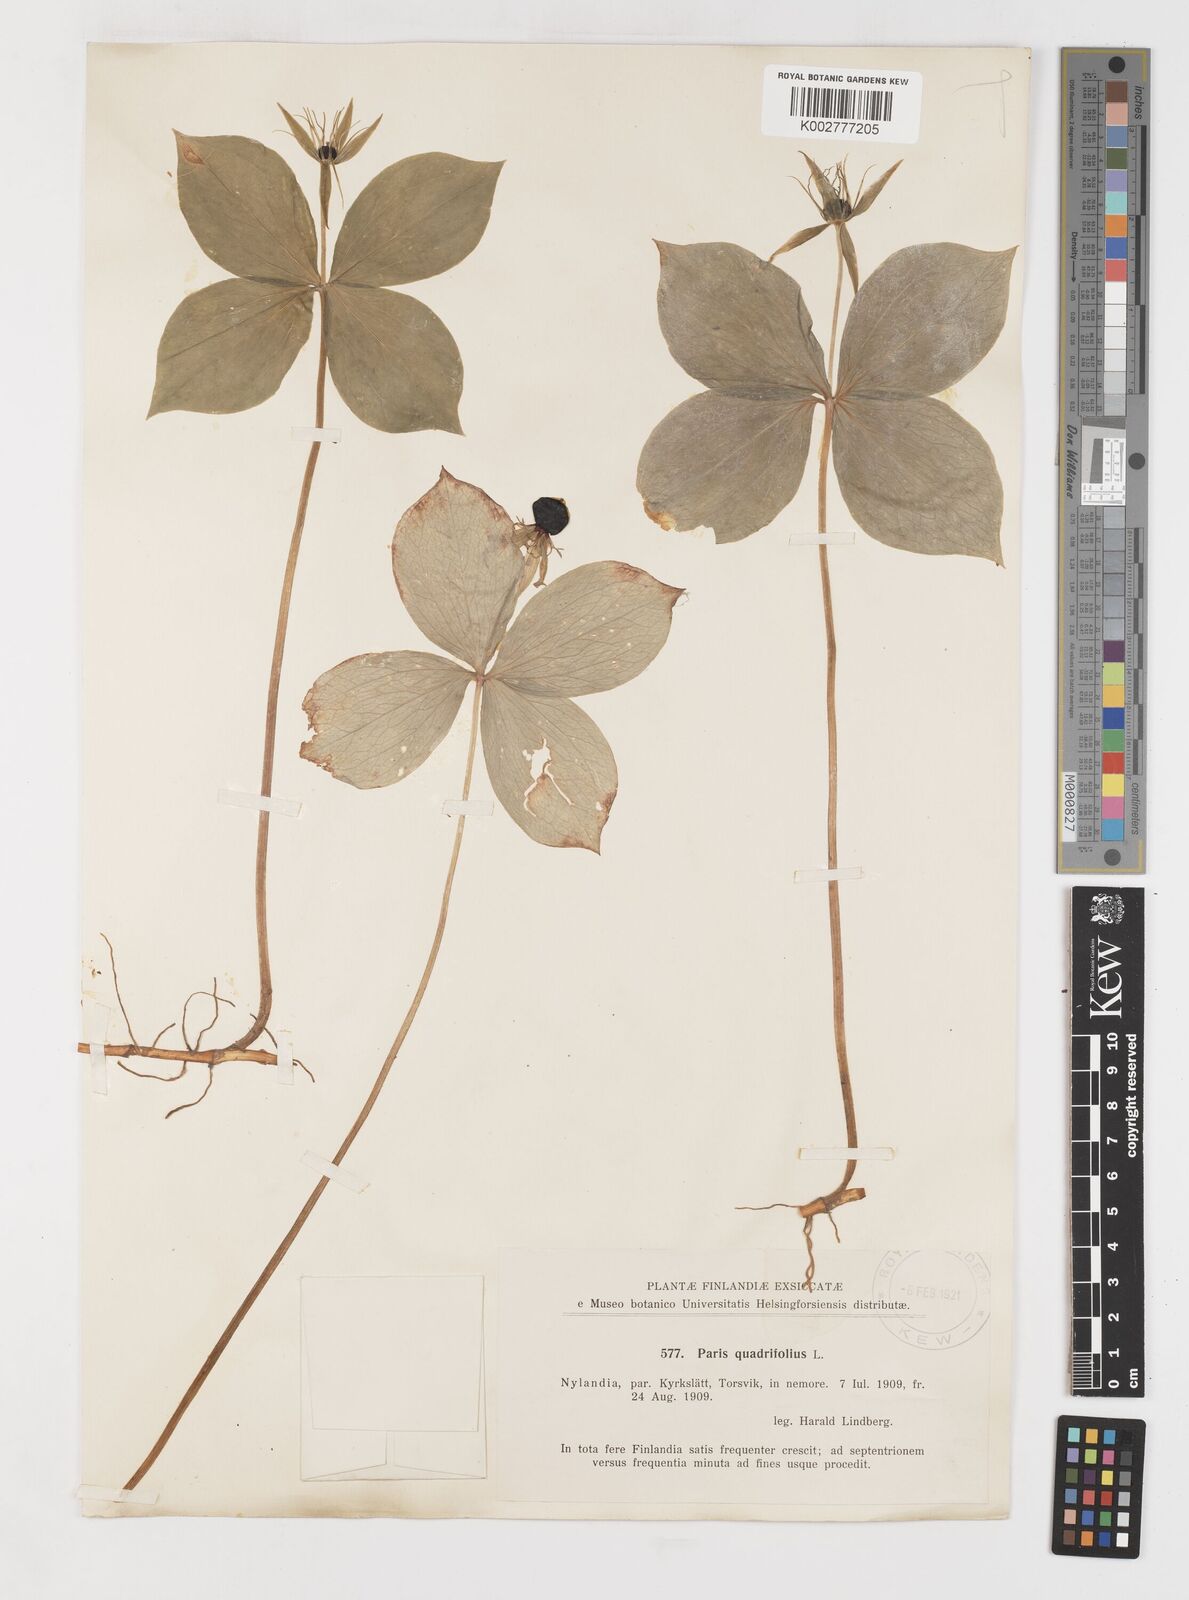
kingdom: Plantae
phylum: Tracheophyta
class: Liliopsida
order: Liliales
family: Melanthiaceae
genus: Paris
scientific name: Paris quadrifolia
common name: Herb-paris
